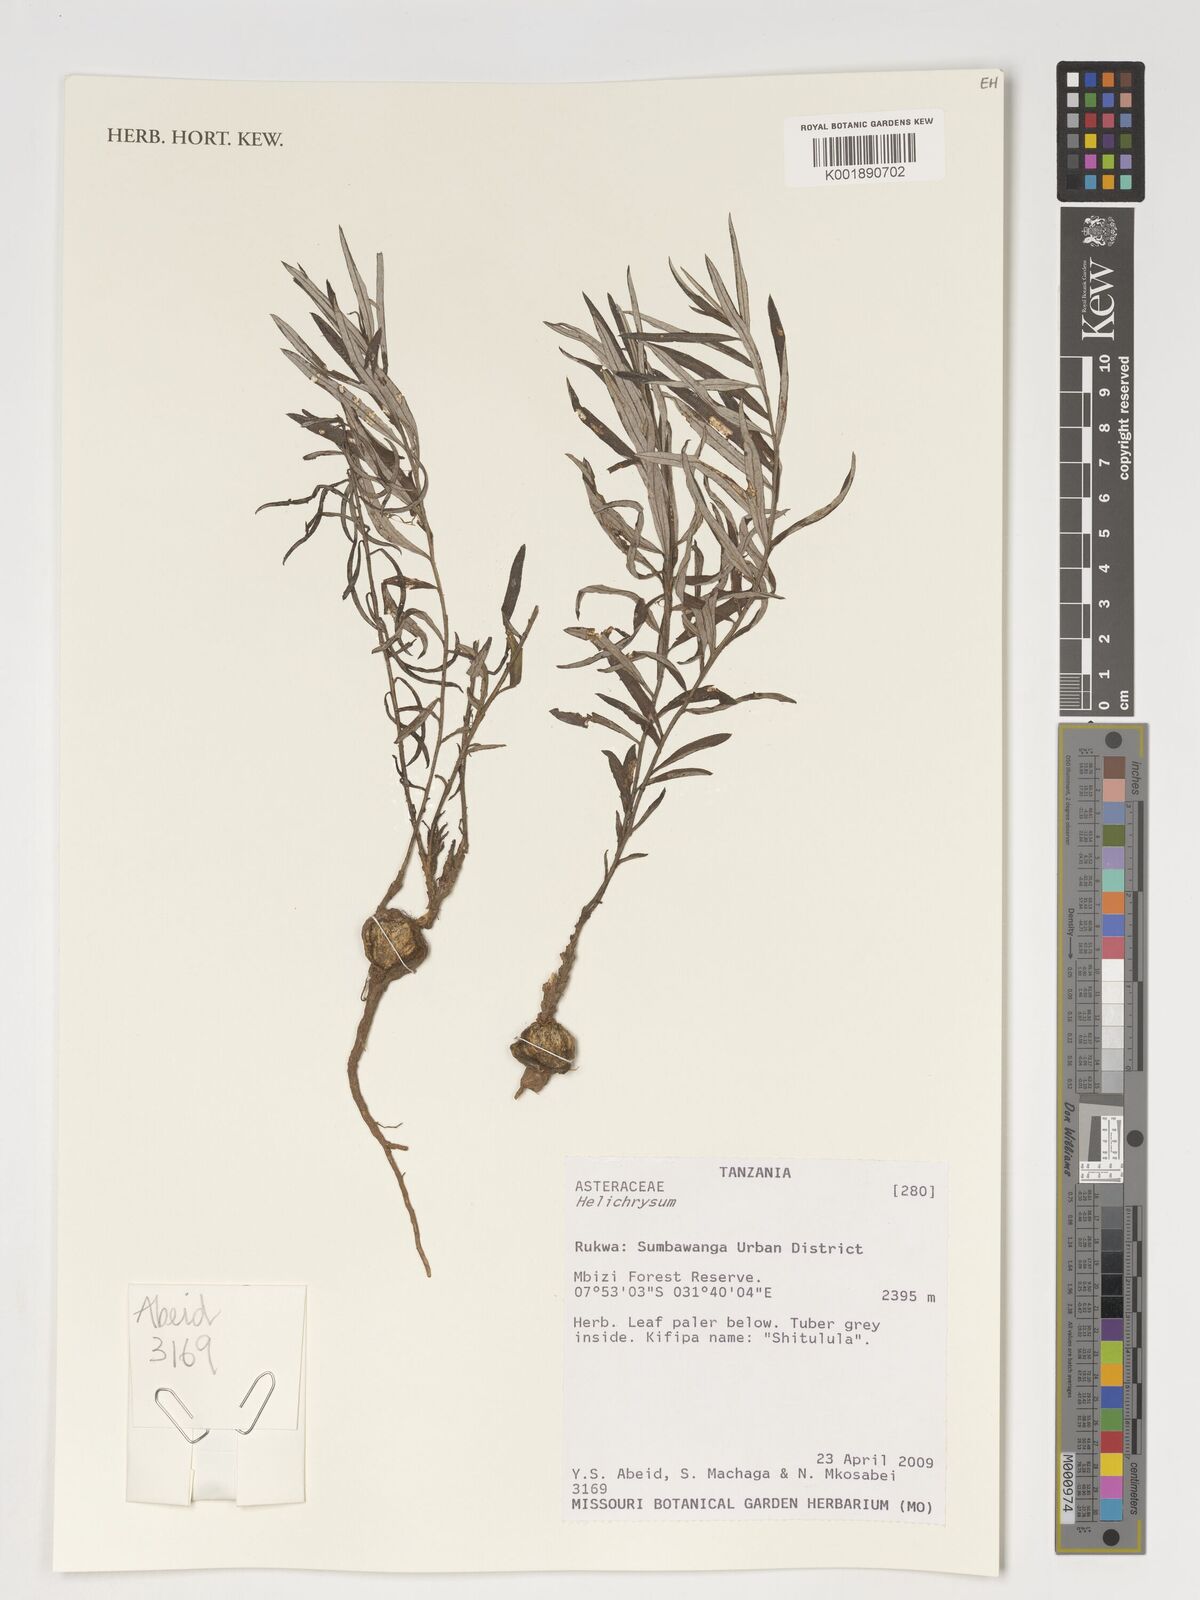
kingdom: Plantae
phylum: Tracheophyta
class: Magnoliopsida
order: Asterales
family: Asteraceae
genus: Helichrysum
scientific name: Helichrysum
